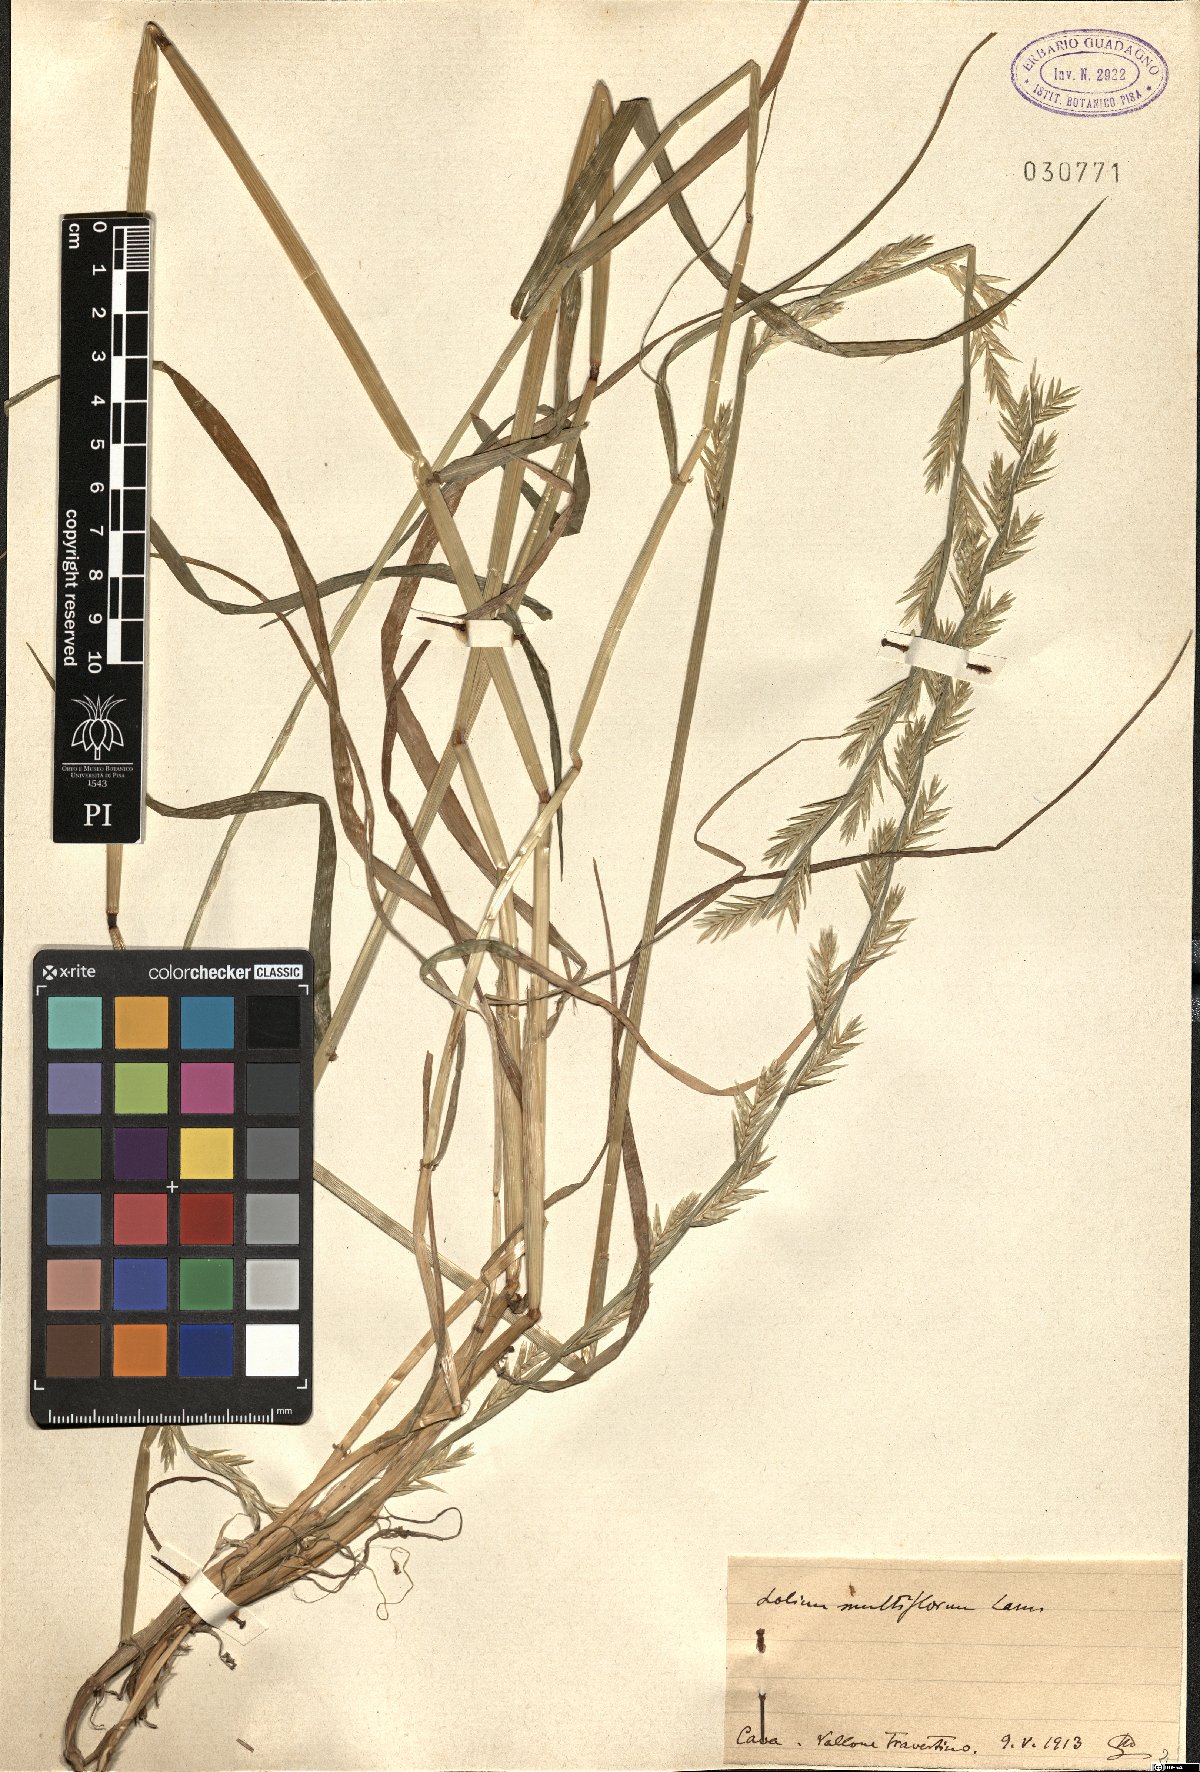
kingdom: Plantae
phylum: Tracheophyta
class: Liliopsida
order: Poales
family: Poaceae
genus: Lolium
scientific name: Lolium multiflorum
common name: Annual ryegrass
